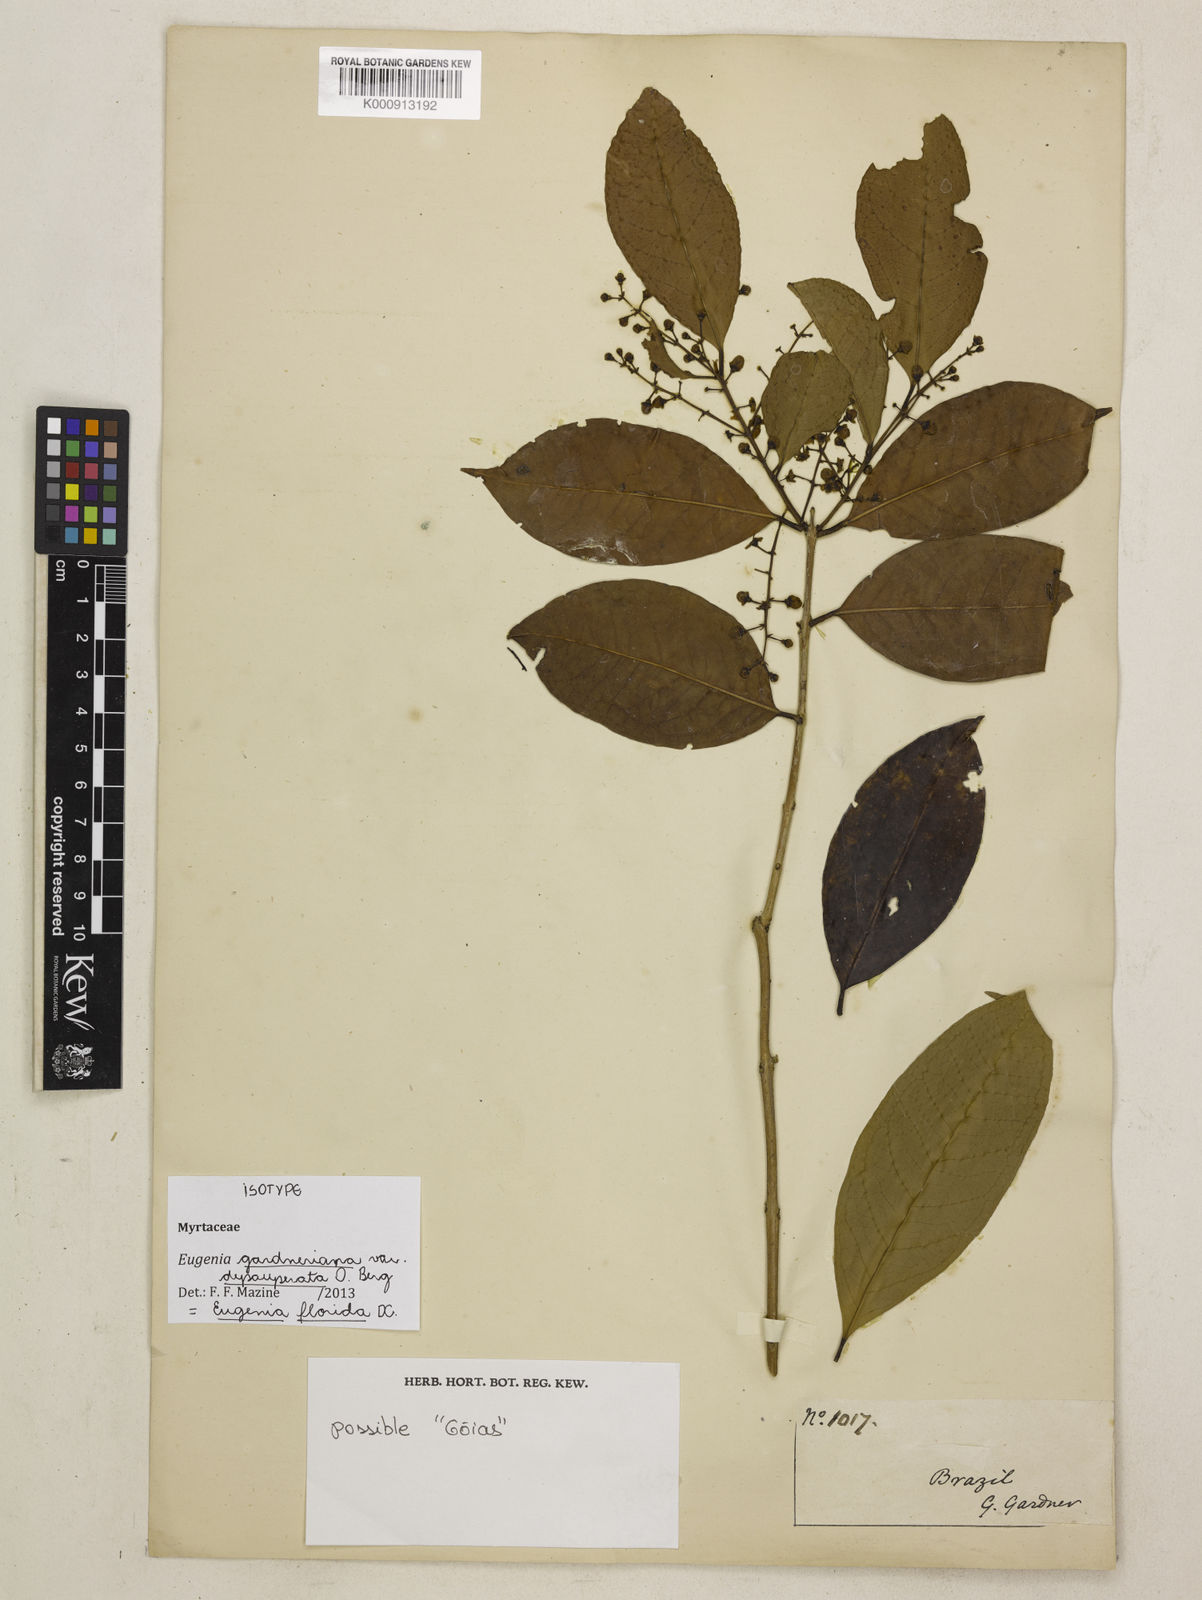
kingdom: Plantae
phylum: Tracheophyta
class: Magnoliopsida
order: Myrtales
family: Myrtaceae
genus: Eugenia
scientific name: Eugenia florida
